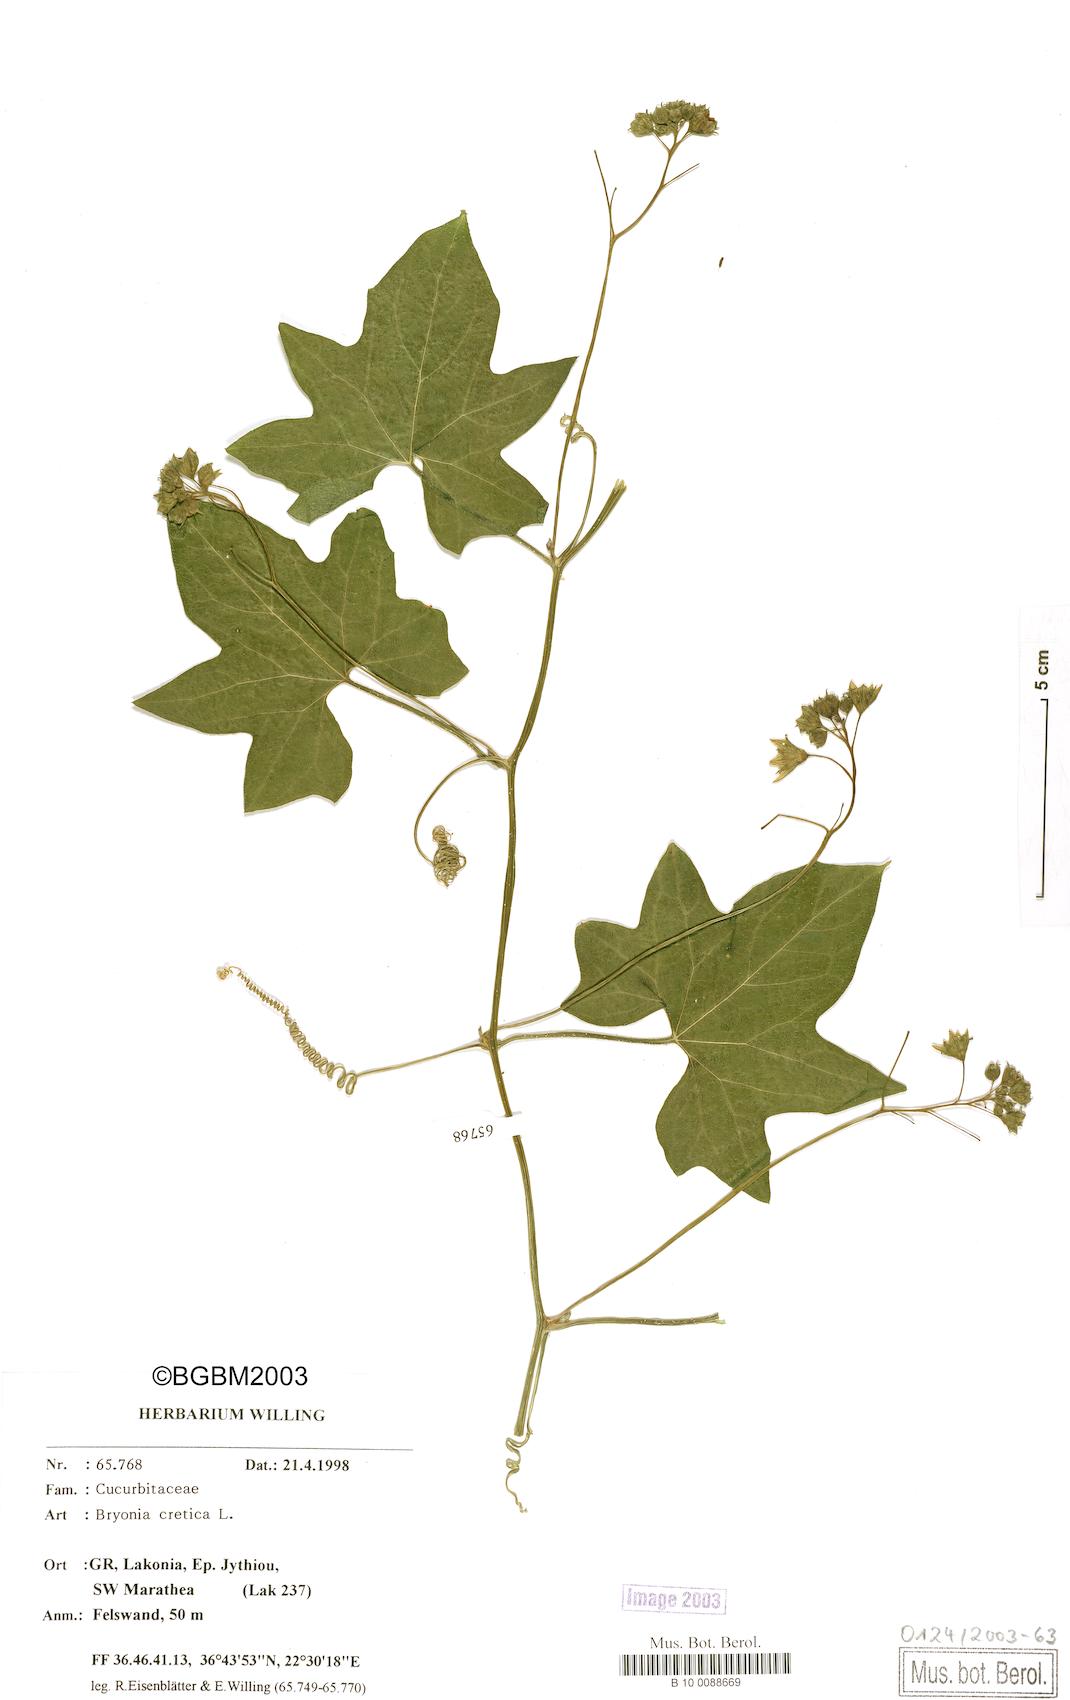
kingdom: Plantae
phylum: Tracheophyta
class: Magnoliopsida
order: Cucurbitales
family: Cucurbitaceae
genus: Bryonia
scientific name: Bryonia cretica
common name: Cretan bryony
